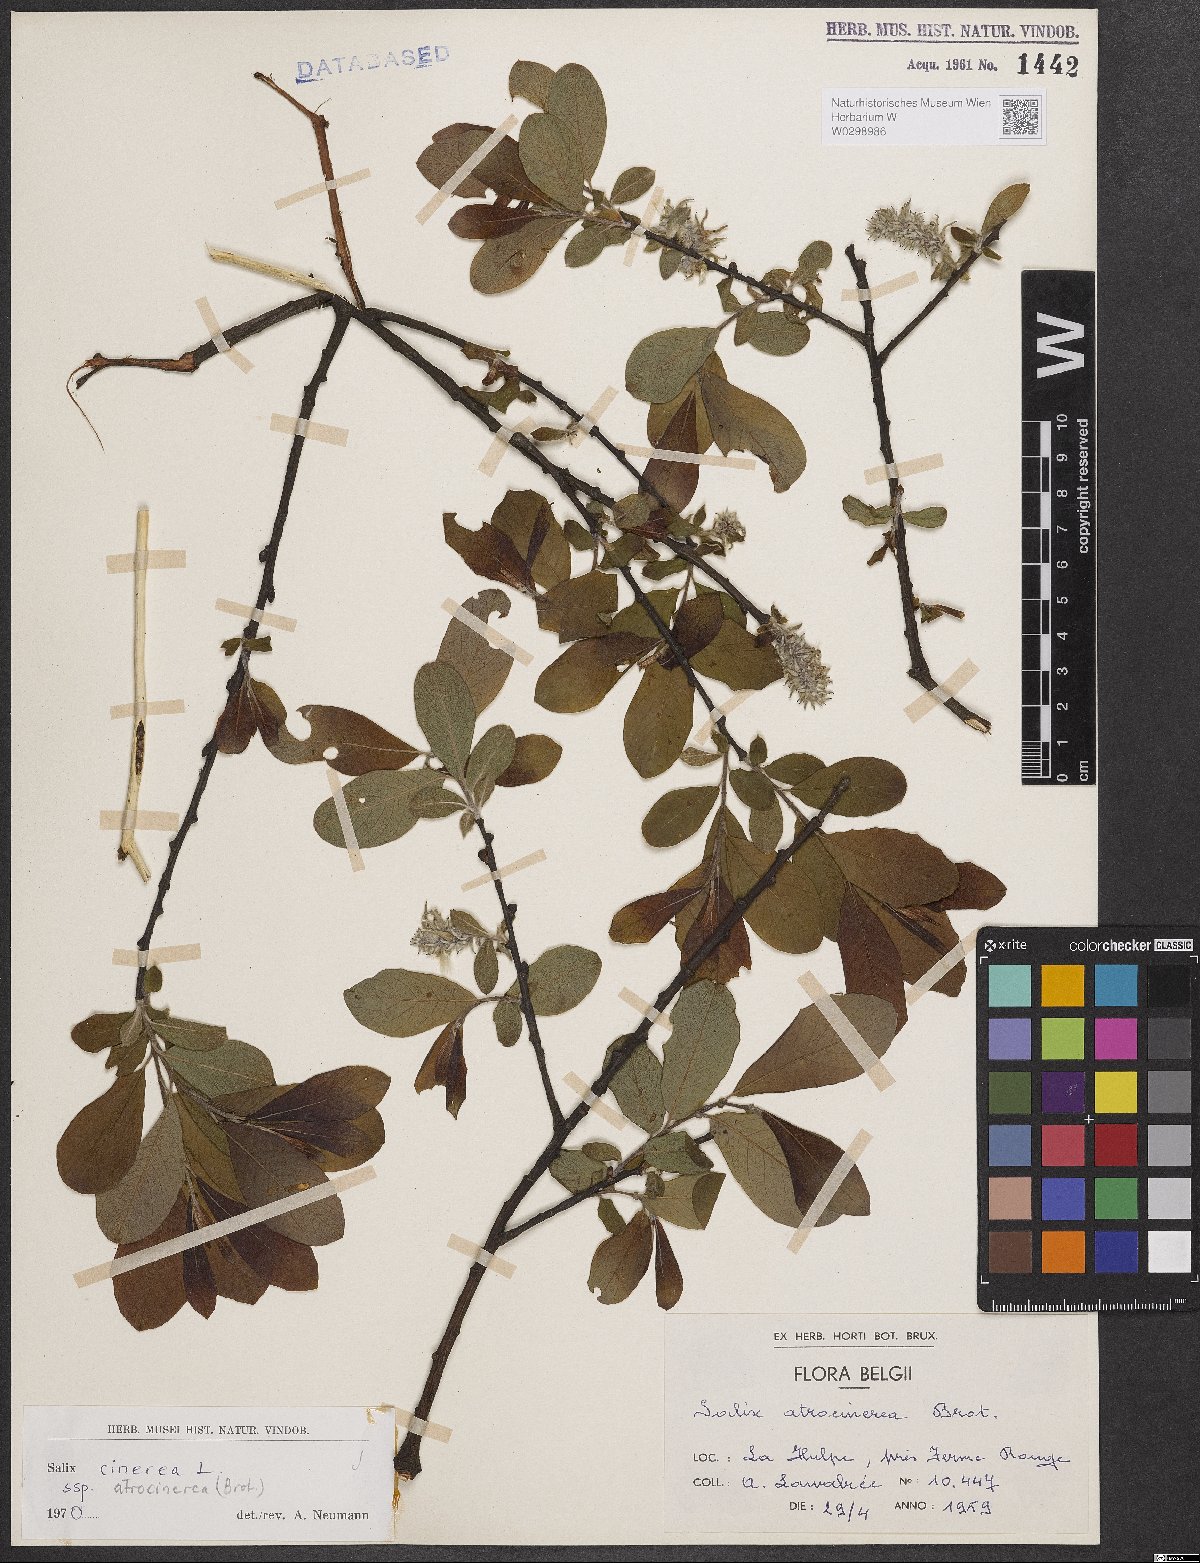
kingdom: Plantae
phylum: Tracheophyta
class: Magnoliopsida
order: Malpighiales
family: Salicaceae
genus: Salix
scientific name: Salix atrocinerea
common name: Rusty willow
